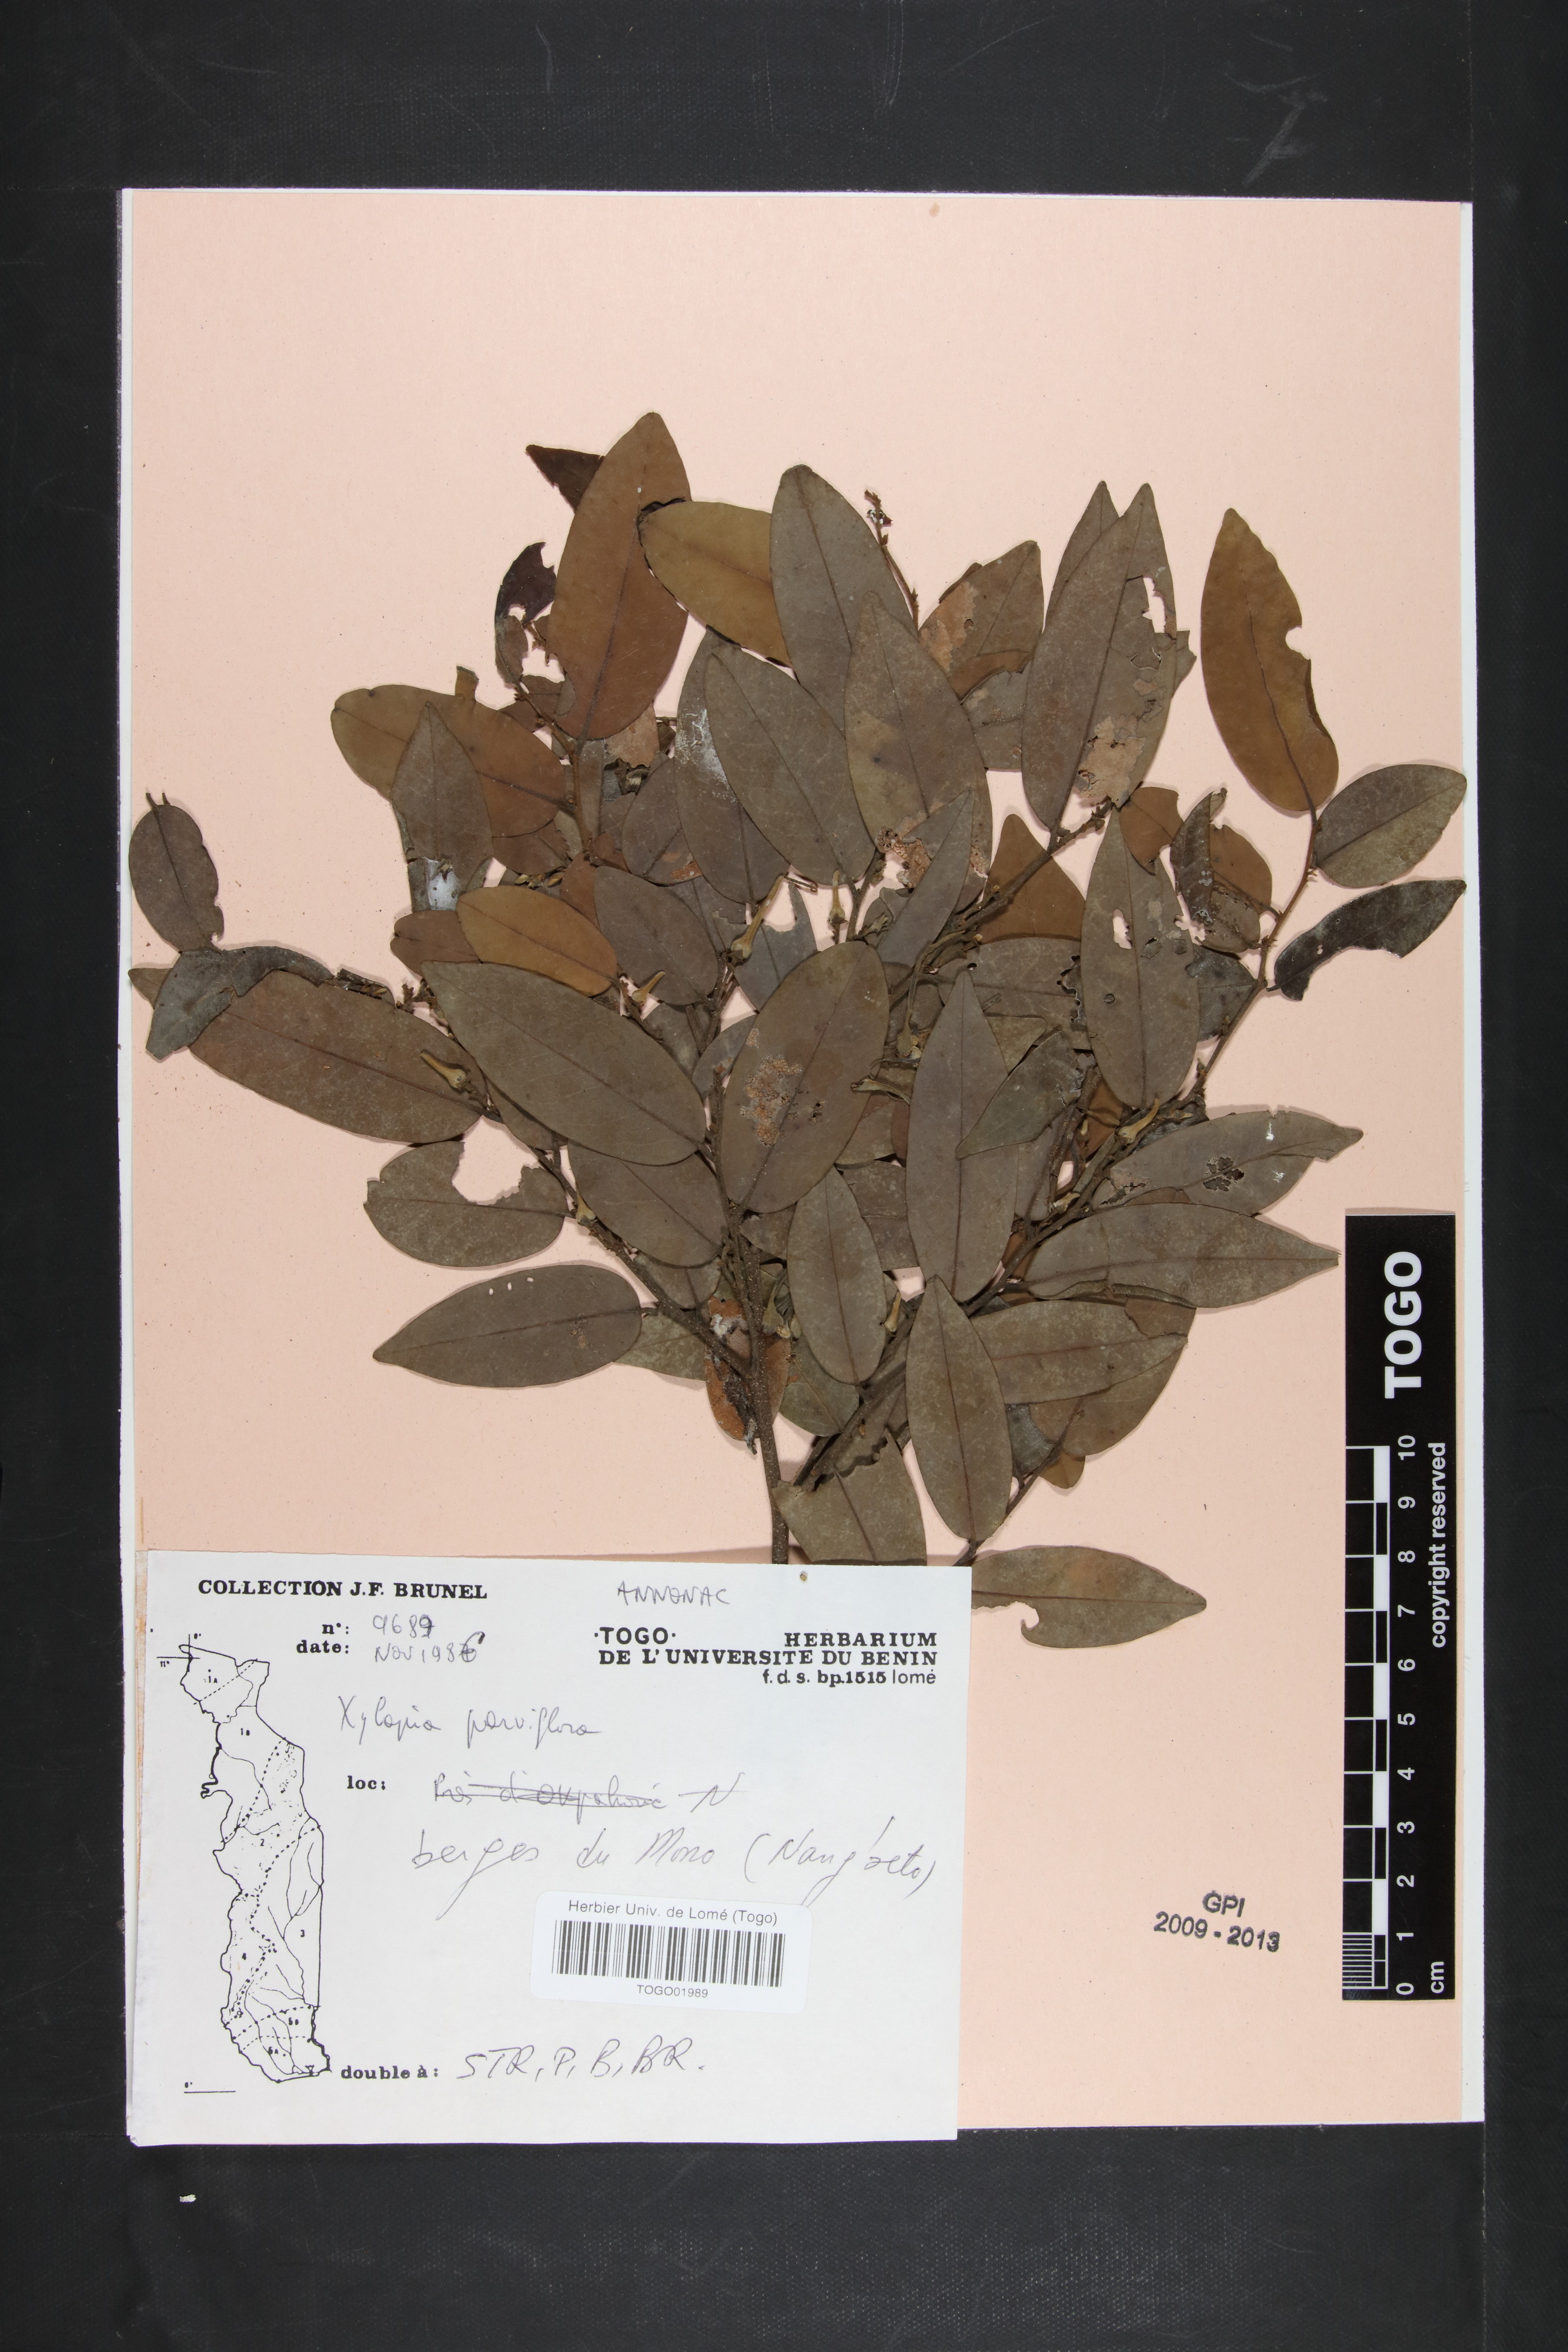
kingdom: Plantae
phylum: Tracheophyta
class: Magnoliopsida
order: Magnoliales
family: Annonaceae
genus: Xylopia
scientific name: Xylopia parviflora
